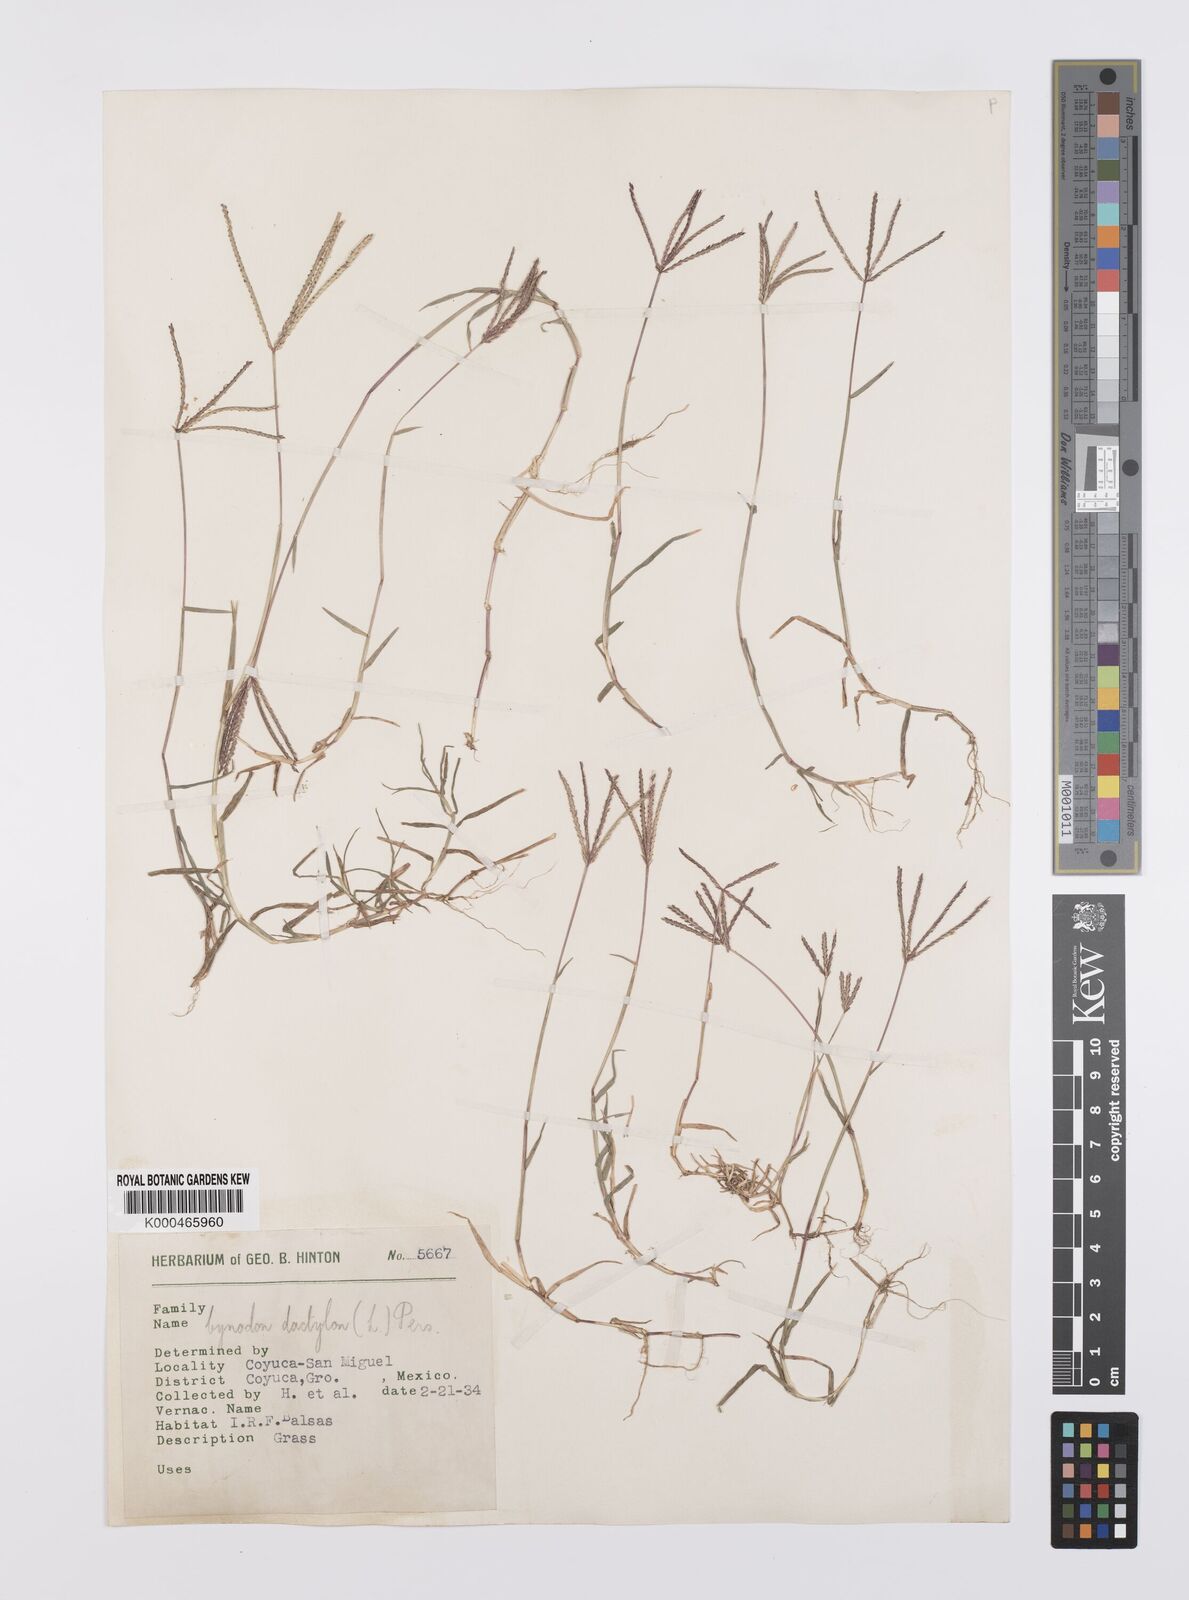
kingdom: Plantae
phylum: Tracheophyta
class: Liliopsida
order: Poales
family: Poaceae
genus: Cynodon
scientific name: Cynodon dactylon
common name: Bermuda grass
